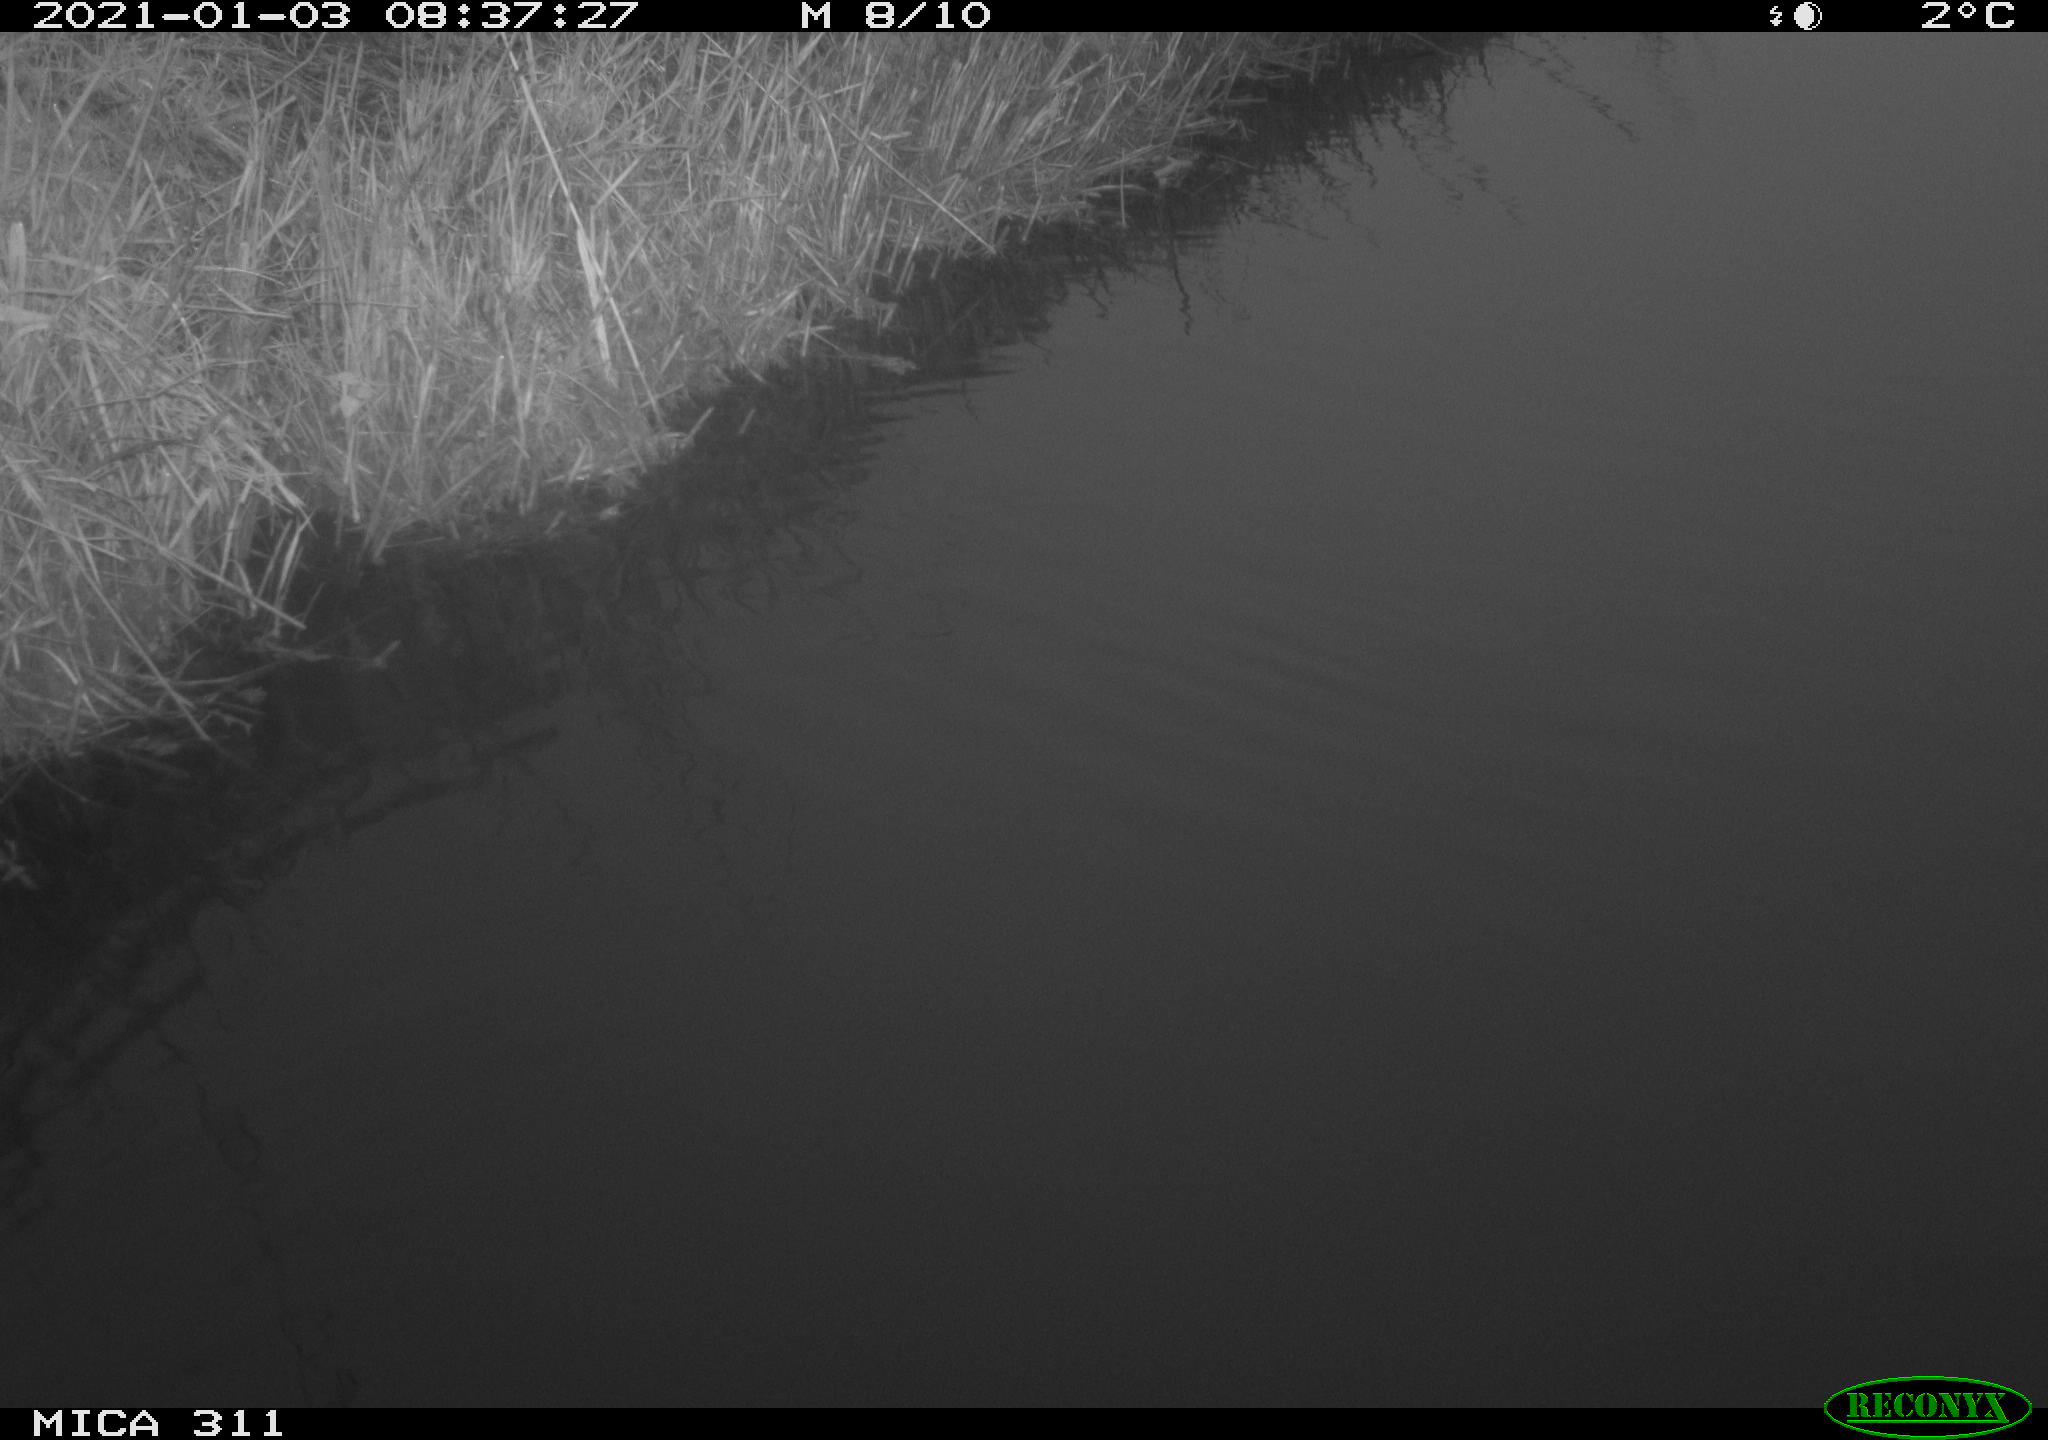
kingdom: Animalia
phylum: Chordata
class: Aves
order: Gruiformes
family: Rallidae
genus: Gallinula
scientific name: Gallinula chloropus
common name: Common moorhen
